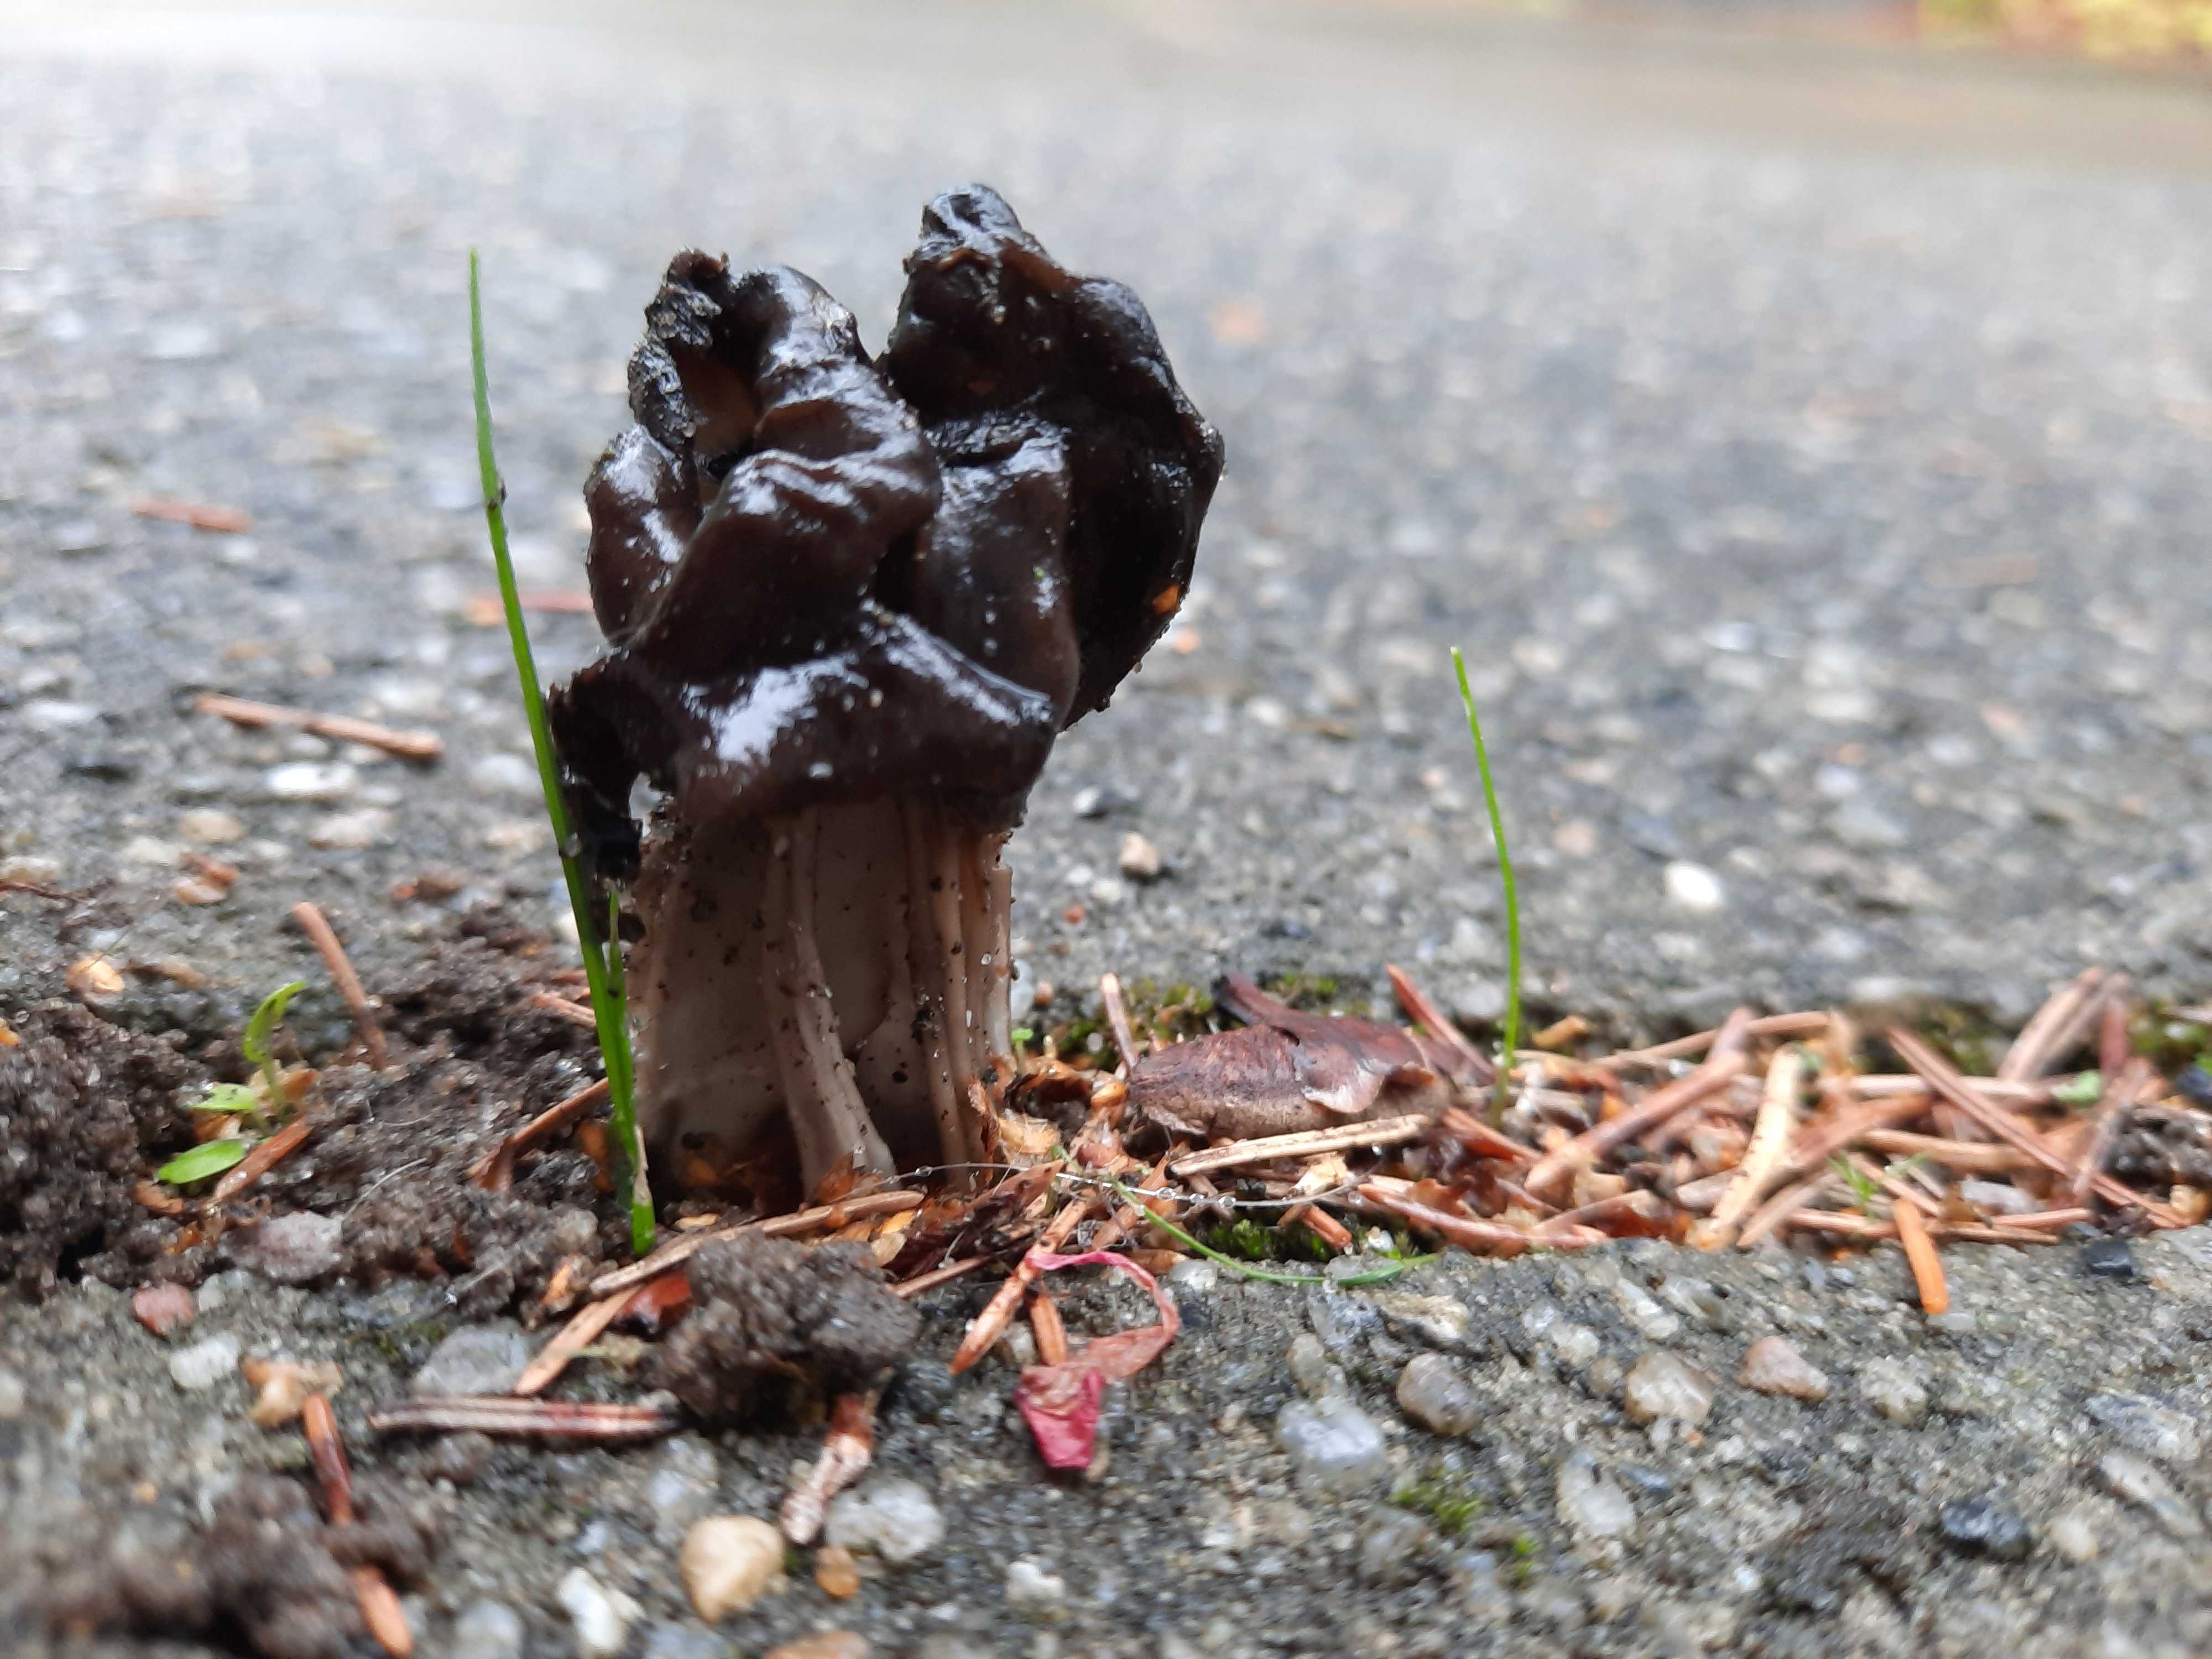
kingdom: Fungi
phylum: Ascomycota
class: Pezizomycetes
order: Pezizales
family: Helvellaceae
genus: Helvella
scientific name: Helvella lacunosa
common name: grubet foldhat
